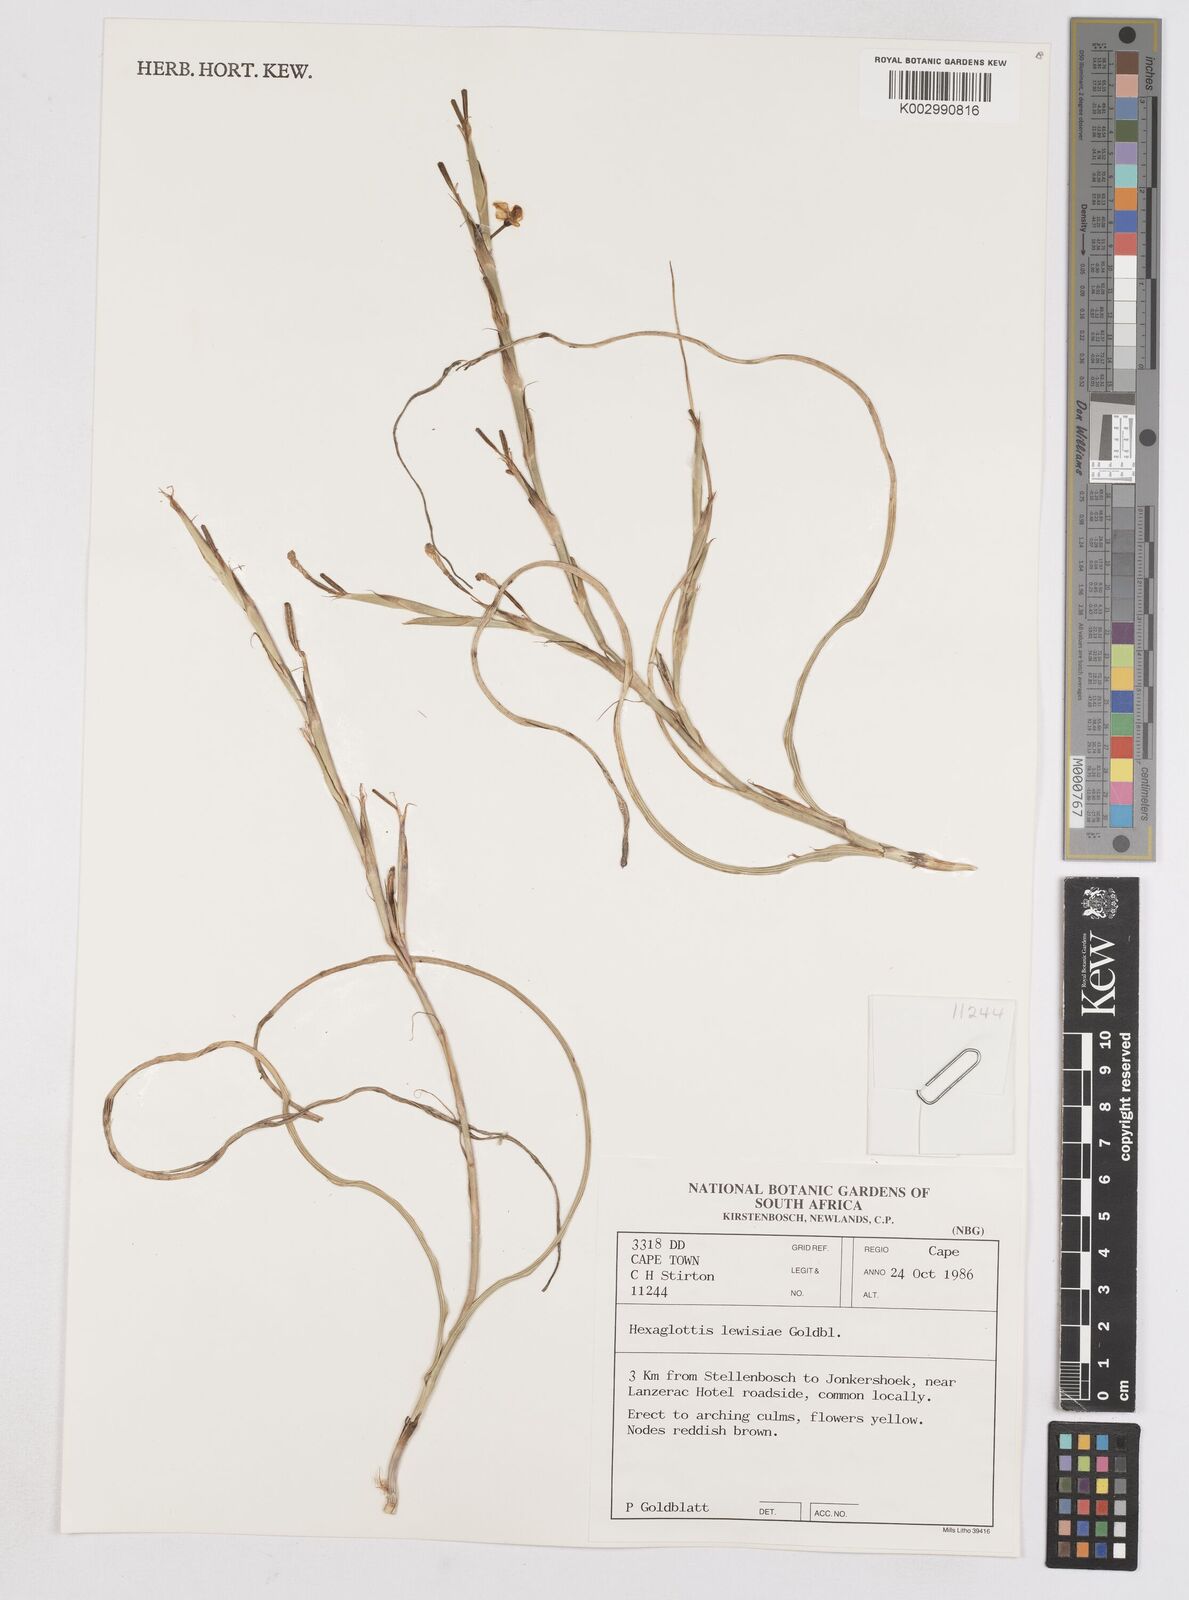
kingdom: Plantae
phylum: Tracheophyta
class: Liliopsida
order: Asparagales
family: Iridaceae
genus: Moraea
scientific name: Moraea lewisiae
